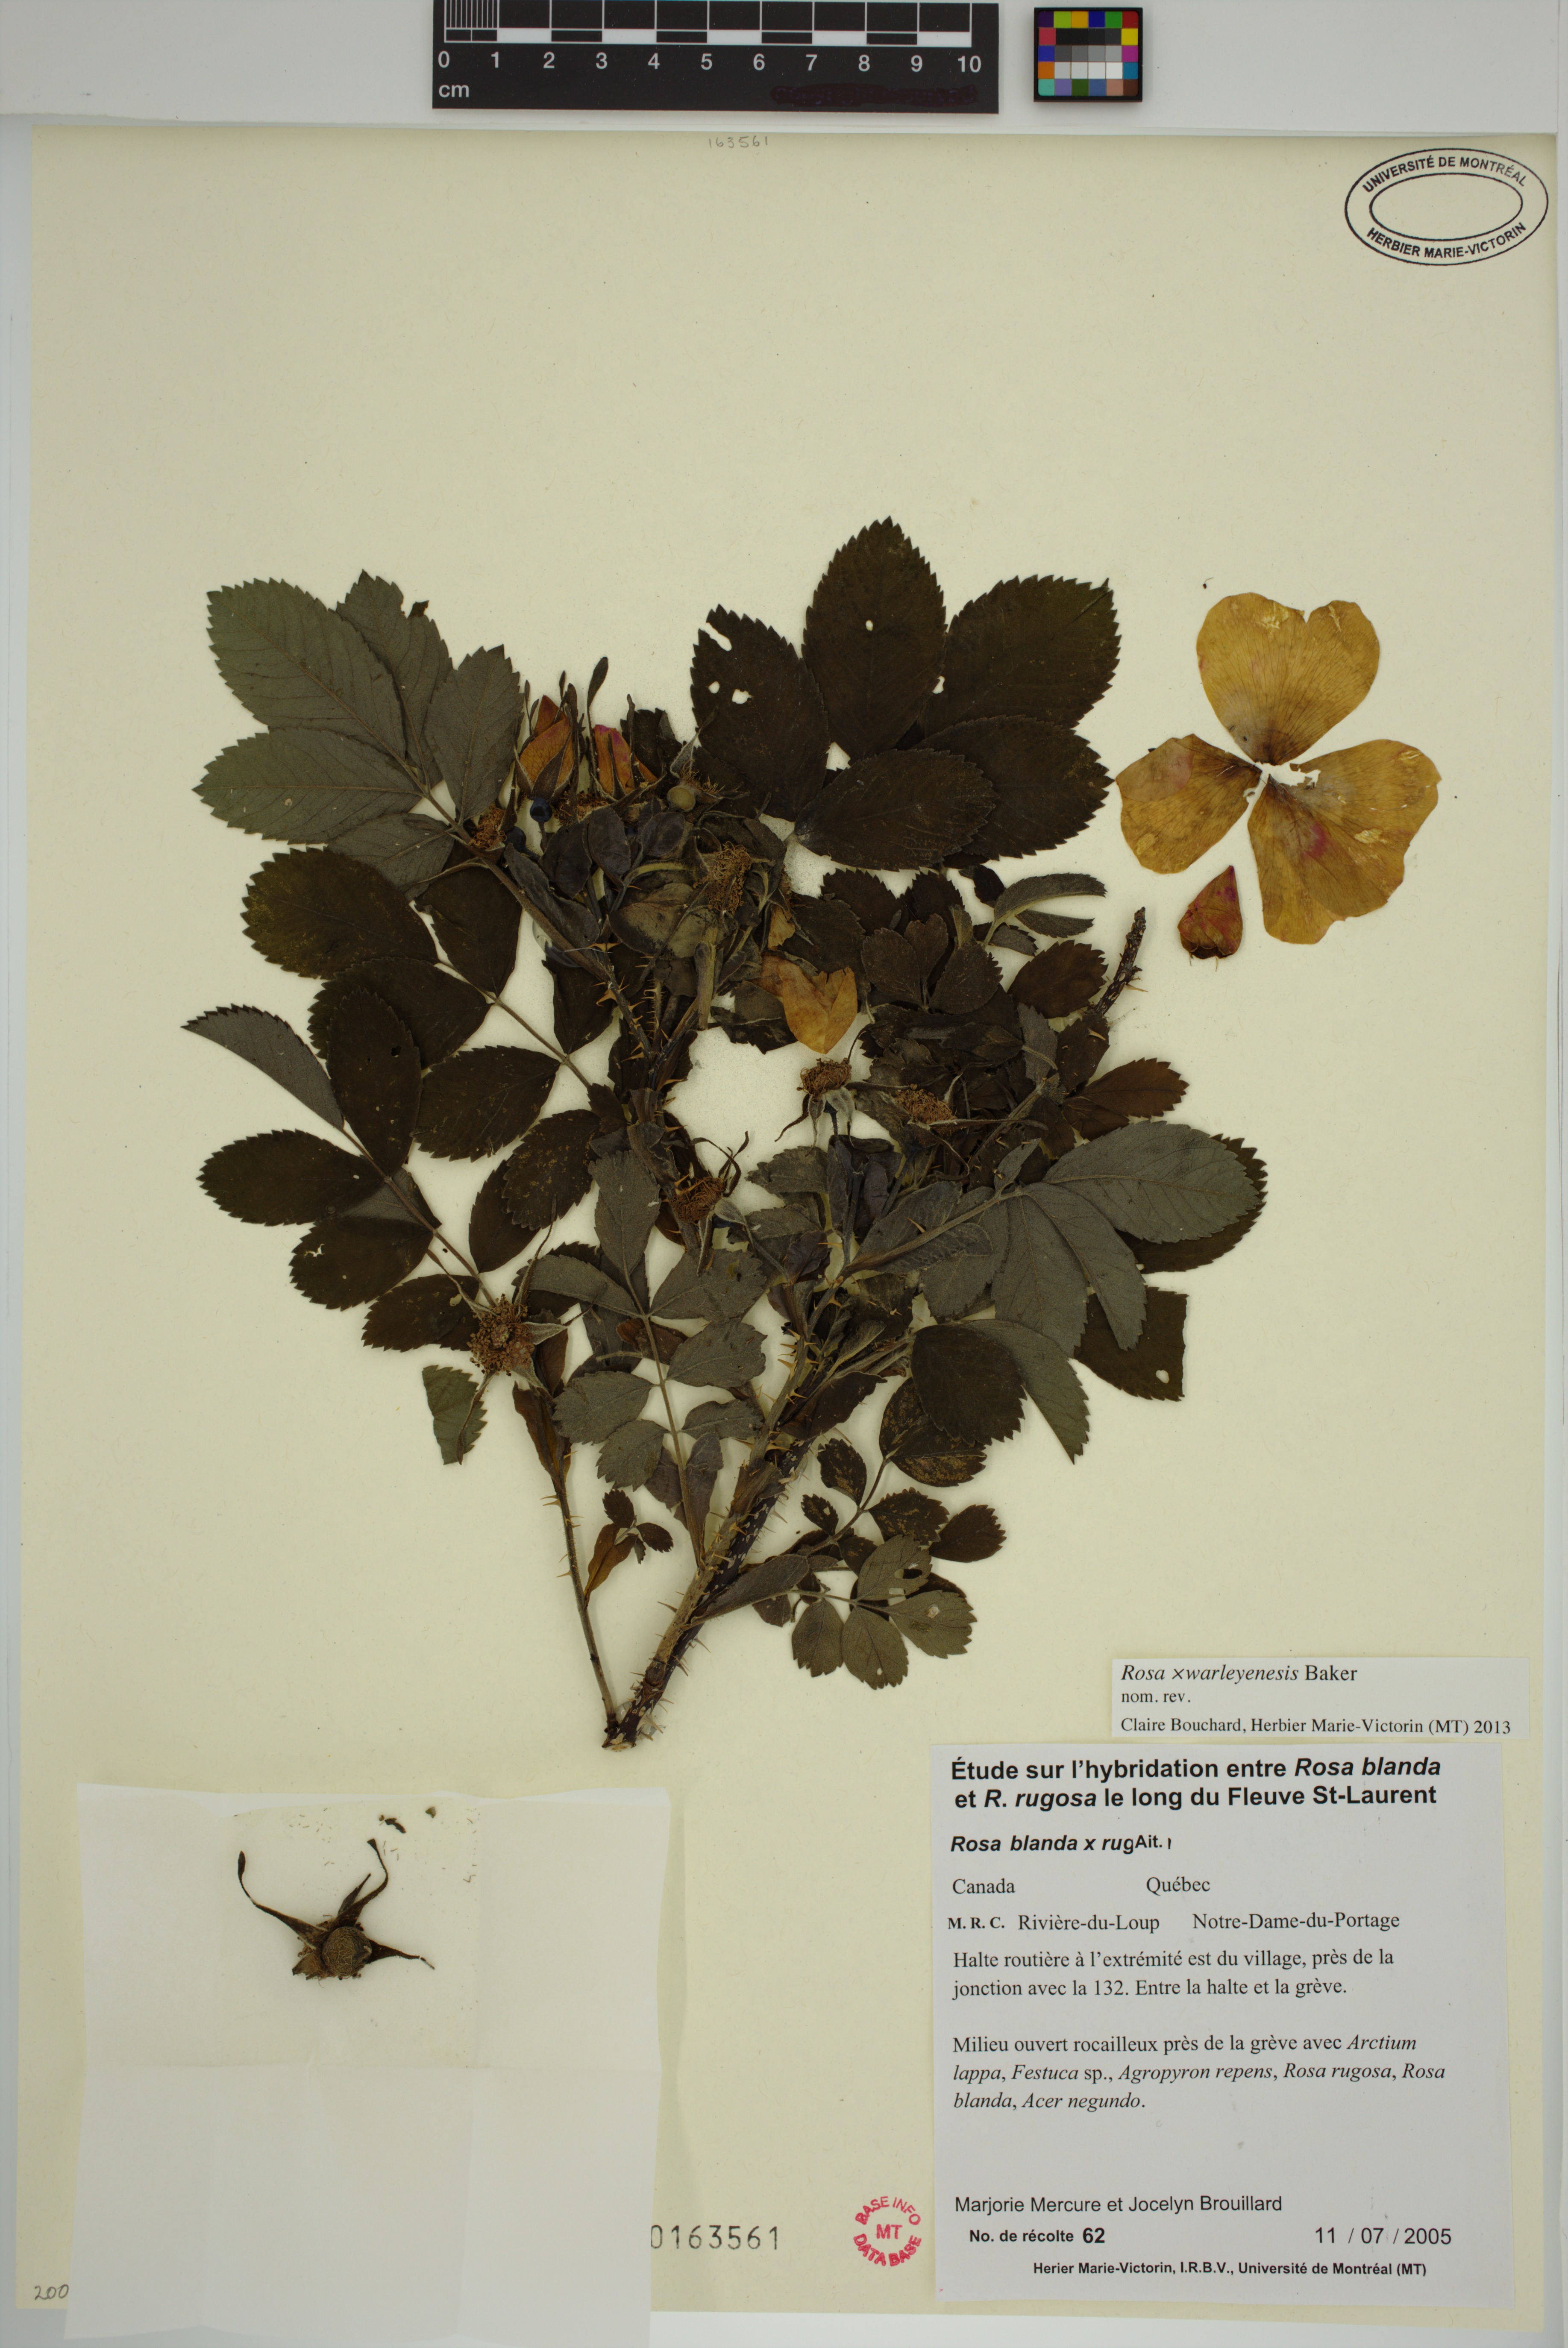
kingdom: Plantae
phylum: Tracheophyta
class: Magnoliopsida
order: Rosales
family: Rosaceae
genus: Rosa
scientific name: Rosa warleyensis
